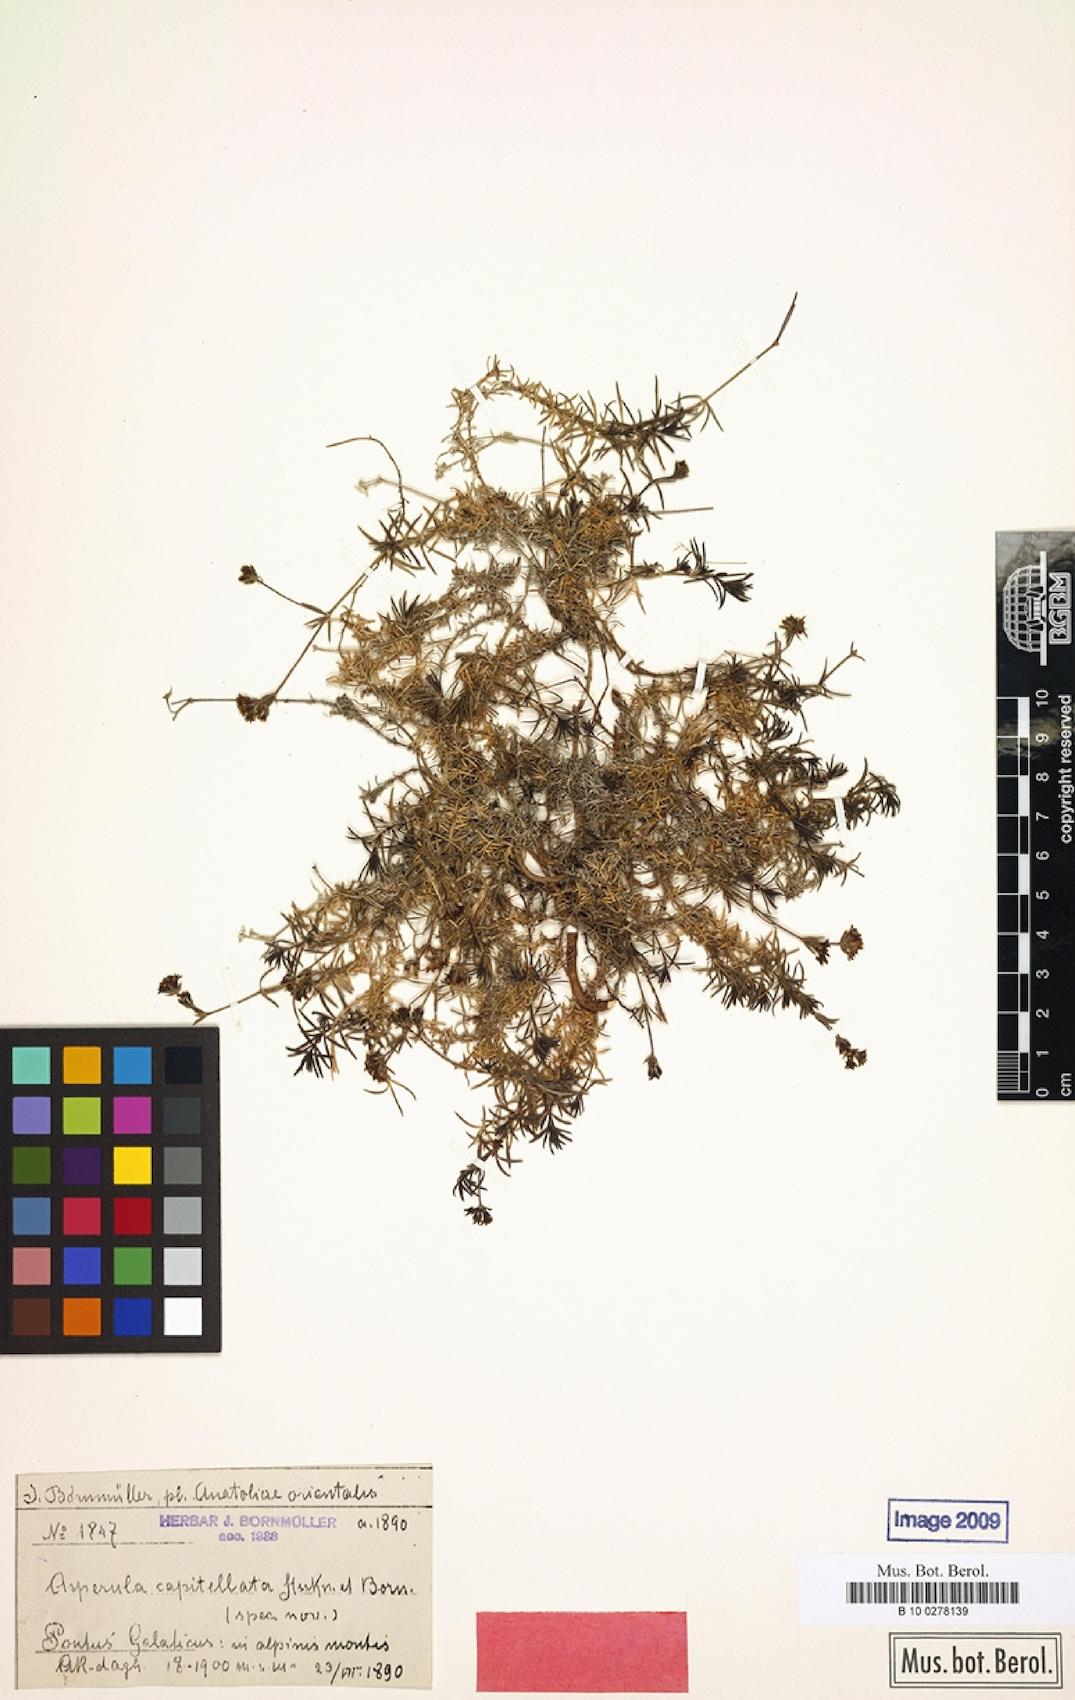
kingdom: Plantae
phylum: Tracheophyta
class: Magnoliopsida
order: Gentianales
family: Rubiaceae
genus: Cynanchica
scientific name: Cynanchica capitellata
